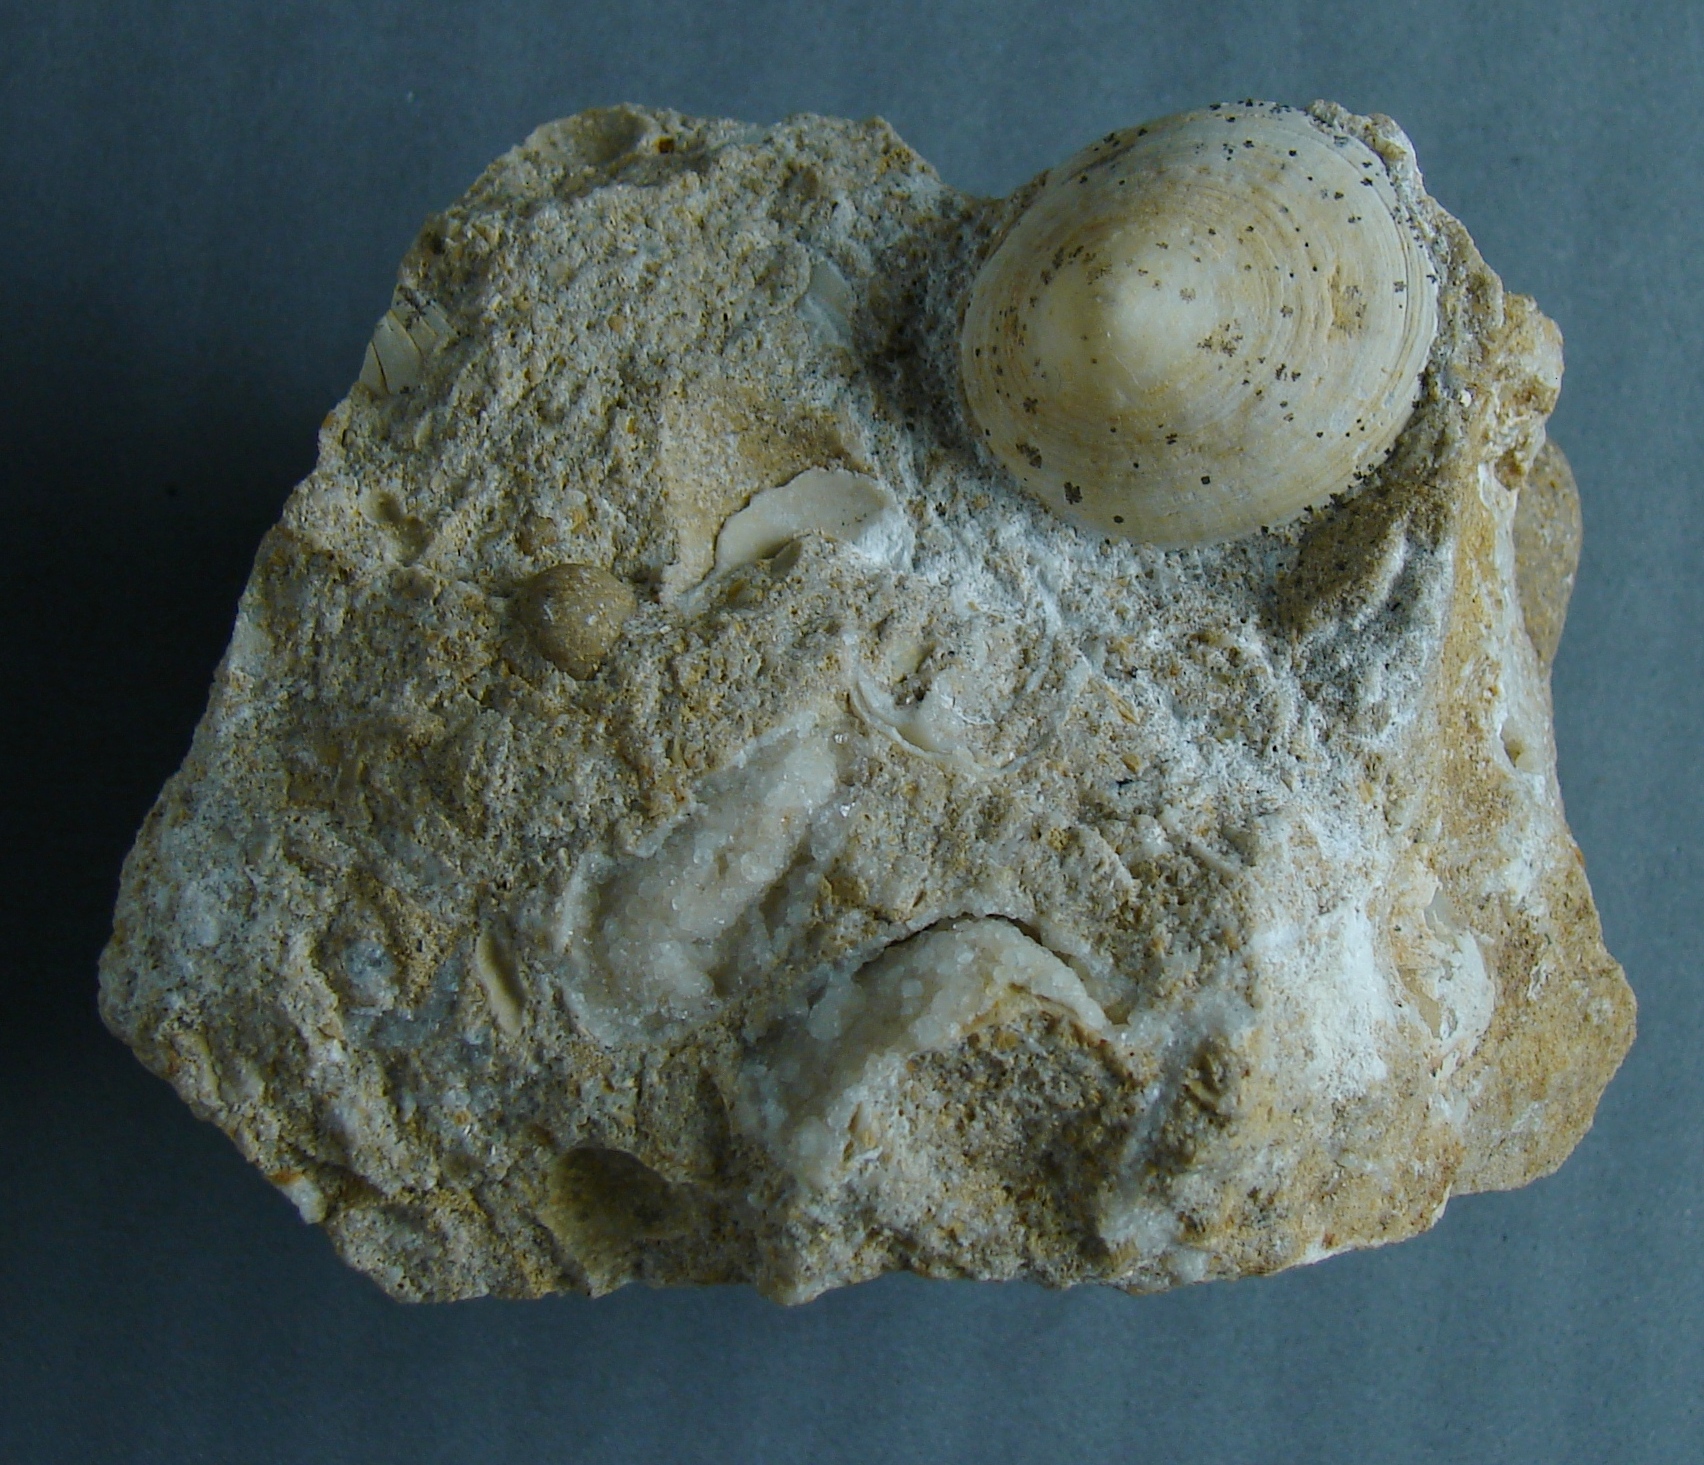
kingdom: Animalia
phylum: Mollusca
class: Gastropoda
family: Acmaeadae
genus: Scurriopsis
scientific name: Scurriopsis Patella hettangiensis
